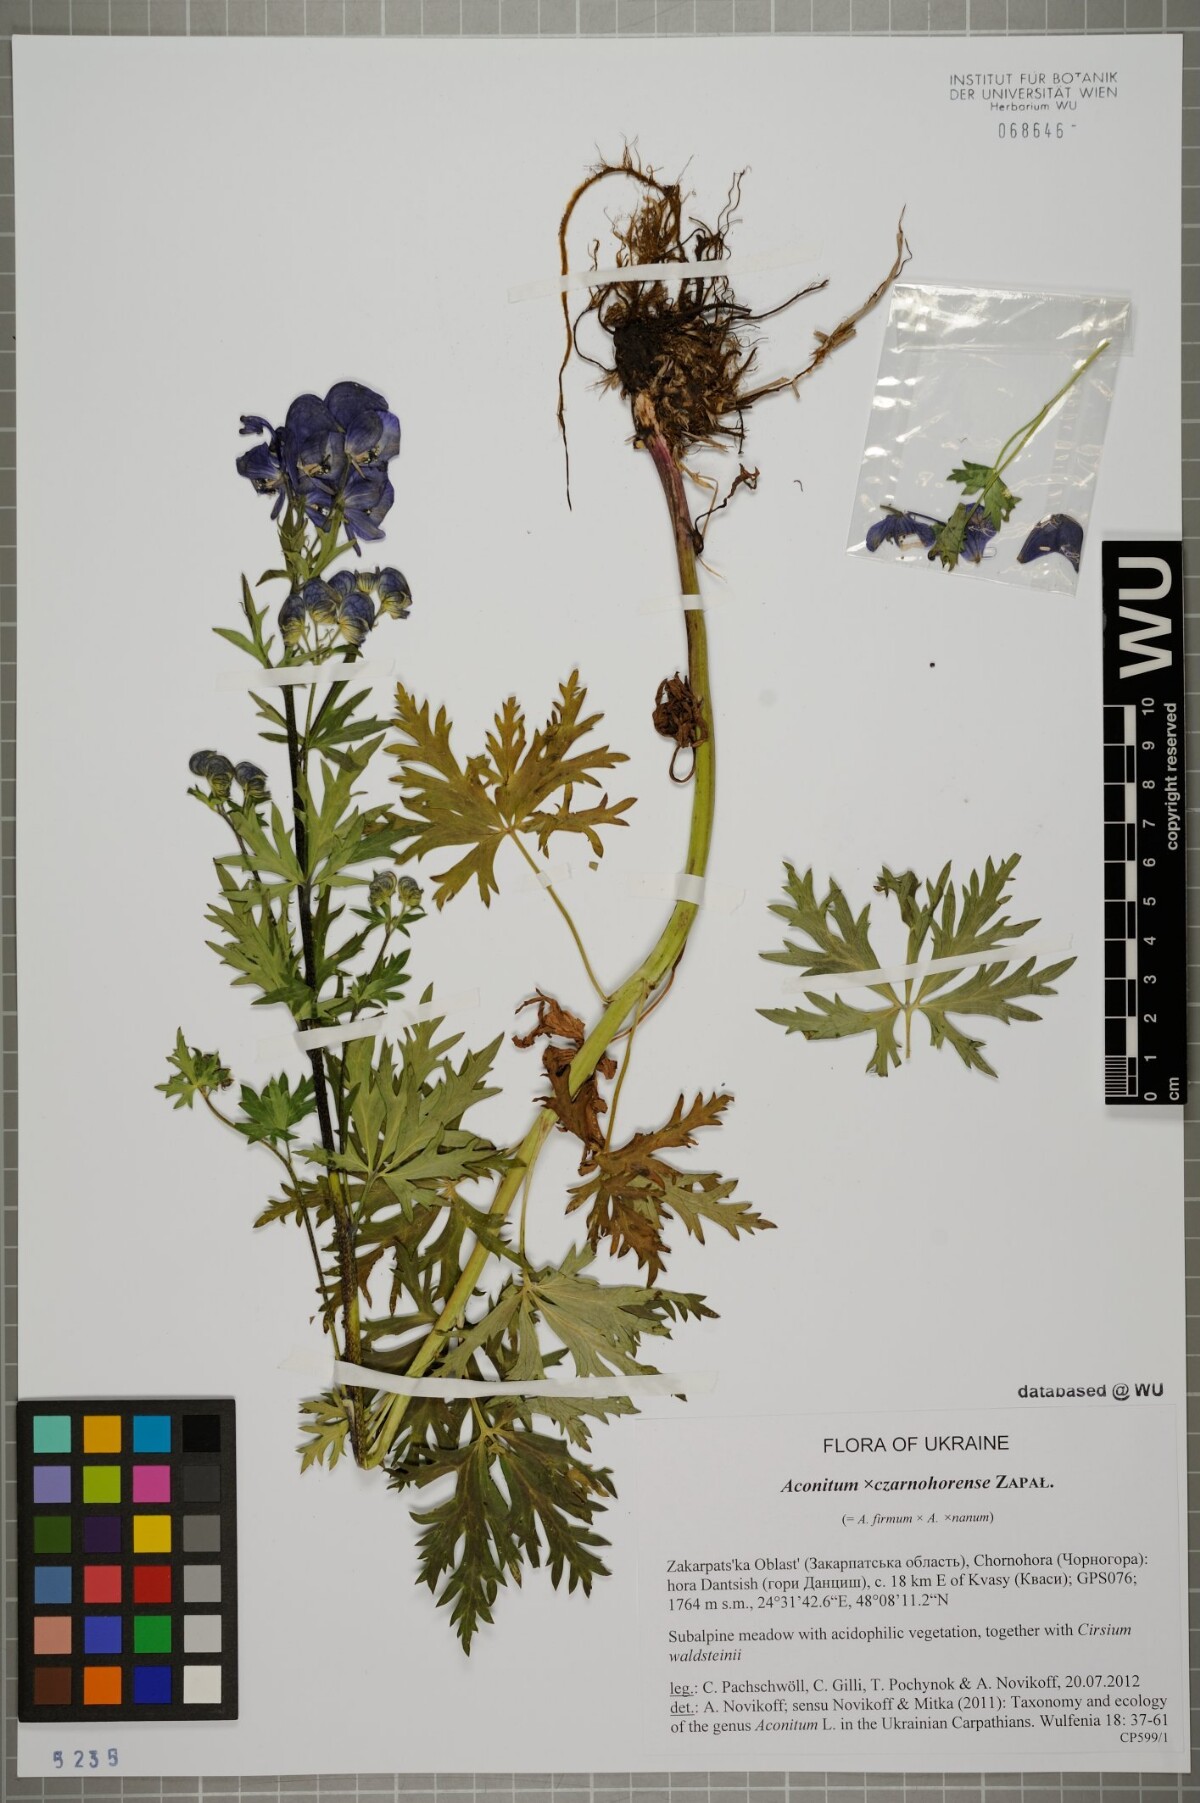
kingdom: Plantae
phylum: Tracheophyta
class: Magnoliopsida
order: Ranunculales
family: Ranunculaceae
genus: Aconitum
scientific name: Aconitum czarnohorense
